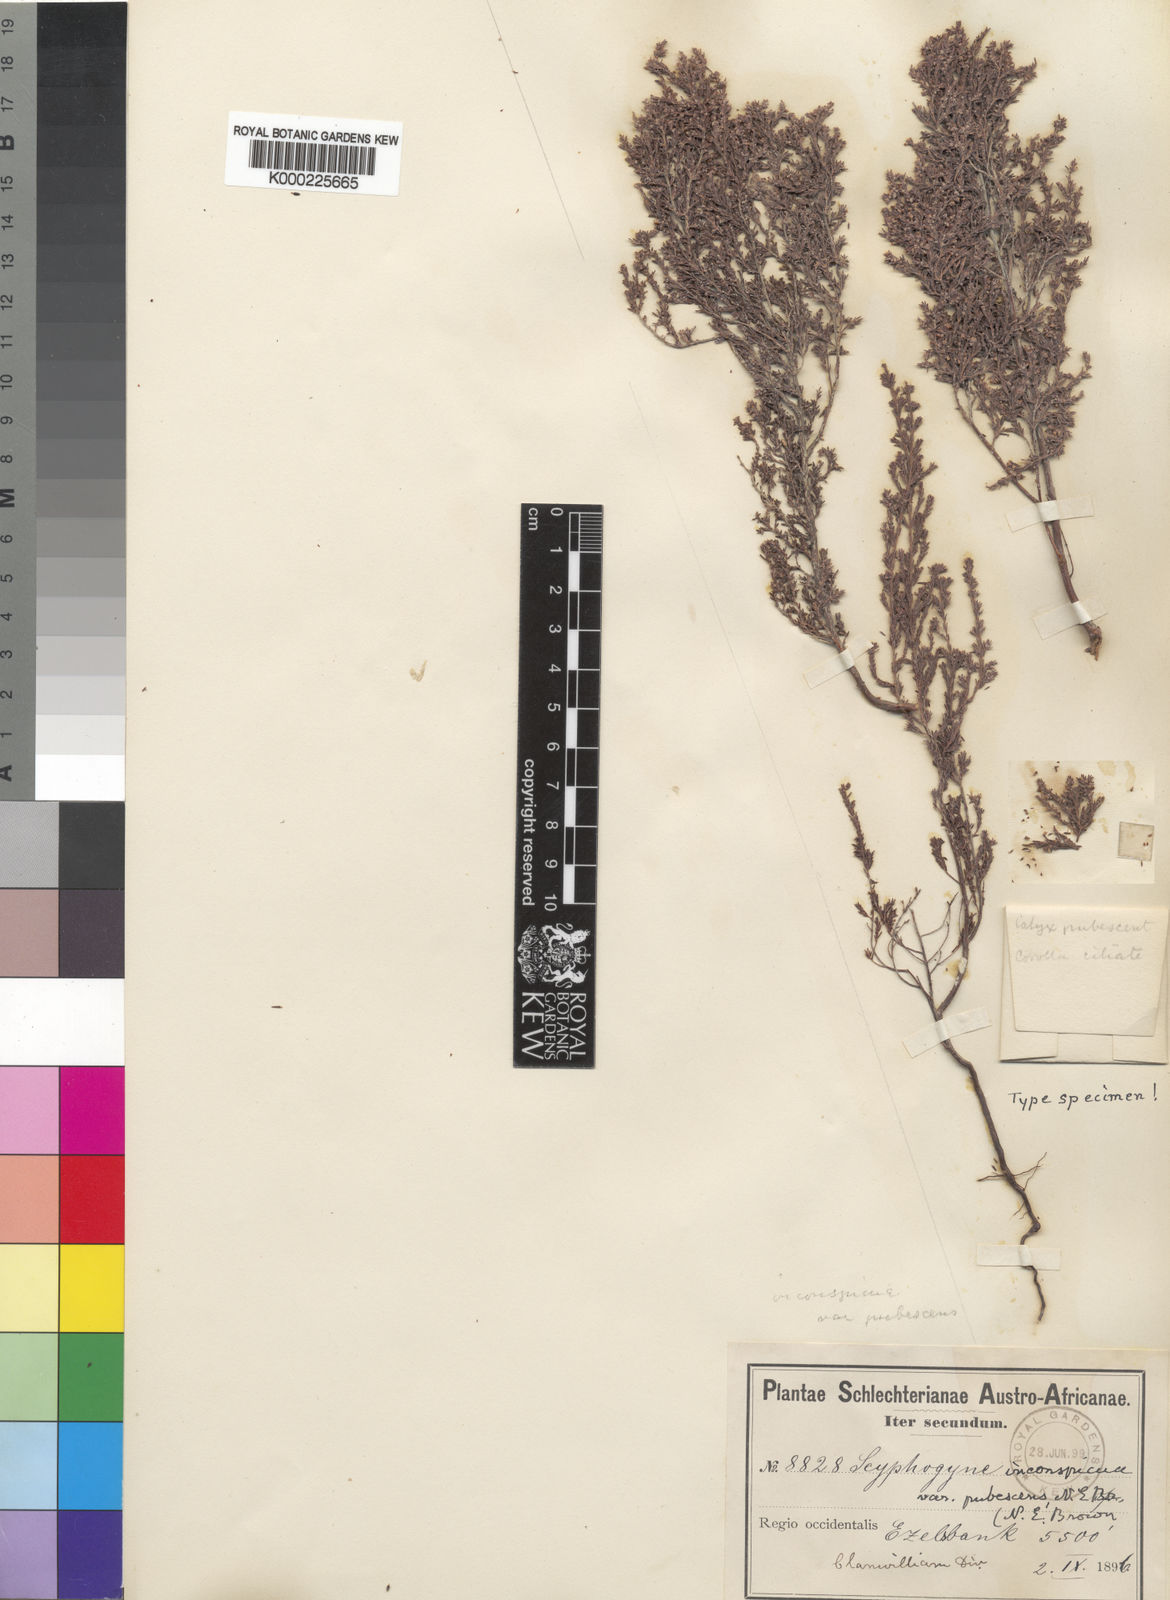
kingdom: Plantae
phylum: Tracheophyta
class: Magnoliopsida
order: Ericales
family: Ericaceae
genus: Scyphogyne
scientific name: Scyphogyne
